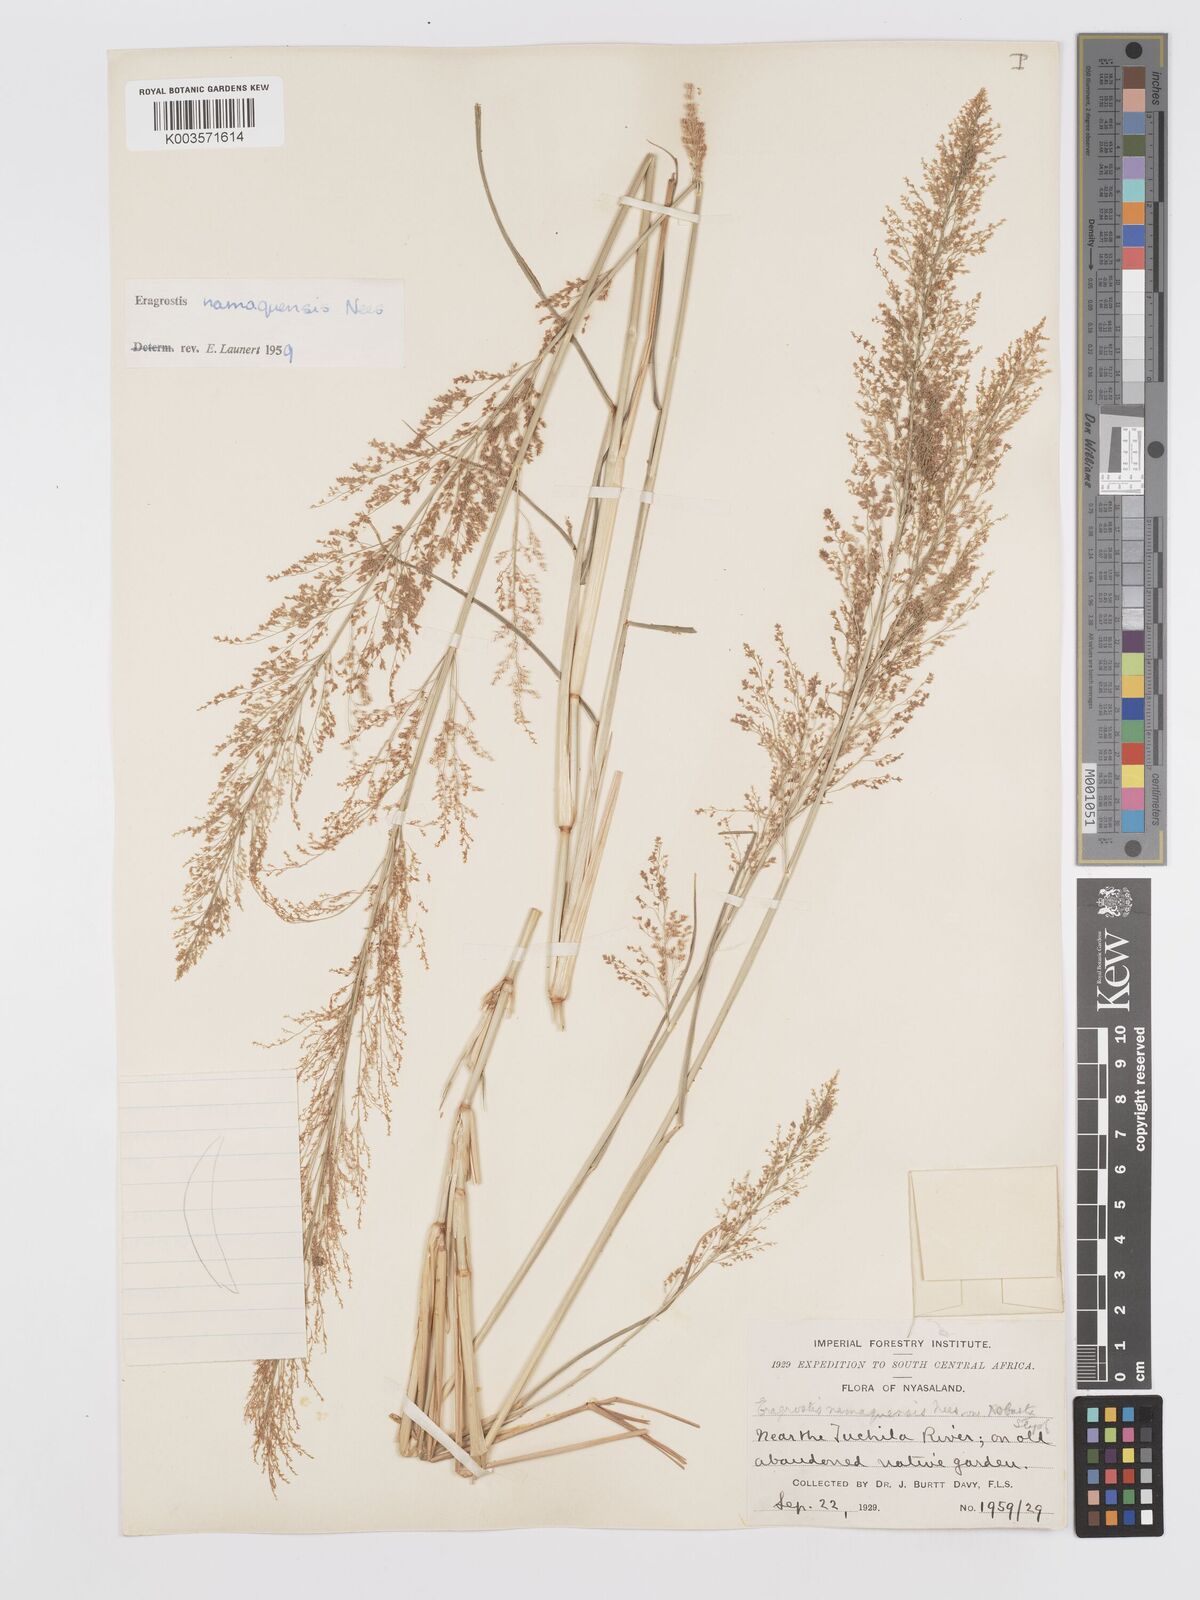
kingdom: Plantae
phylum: Tracheophyta
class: Liliopsida
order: Poales
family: Poaceae
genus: Eragrostis
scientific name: Eragrostis japonica
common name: Pond lovegrass
